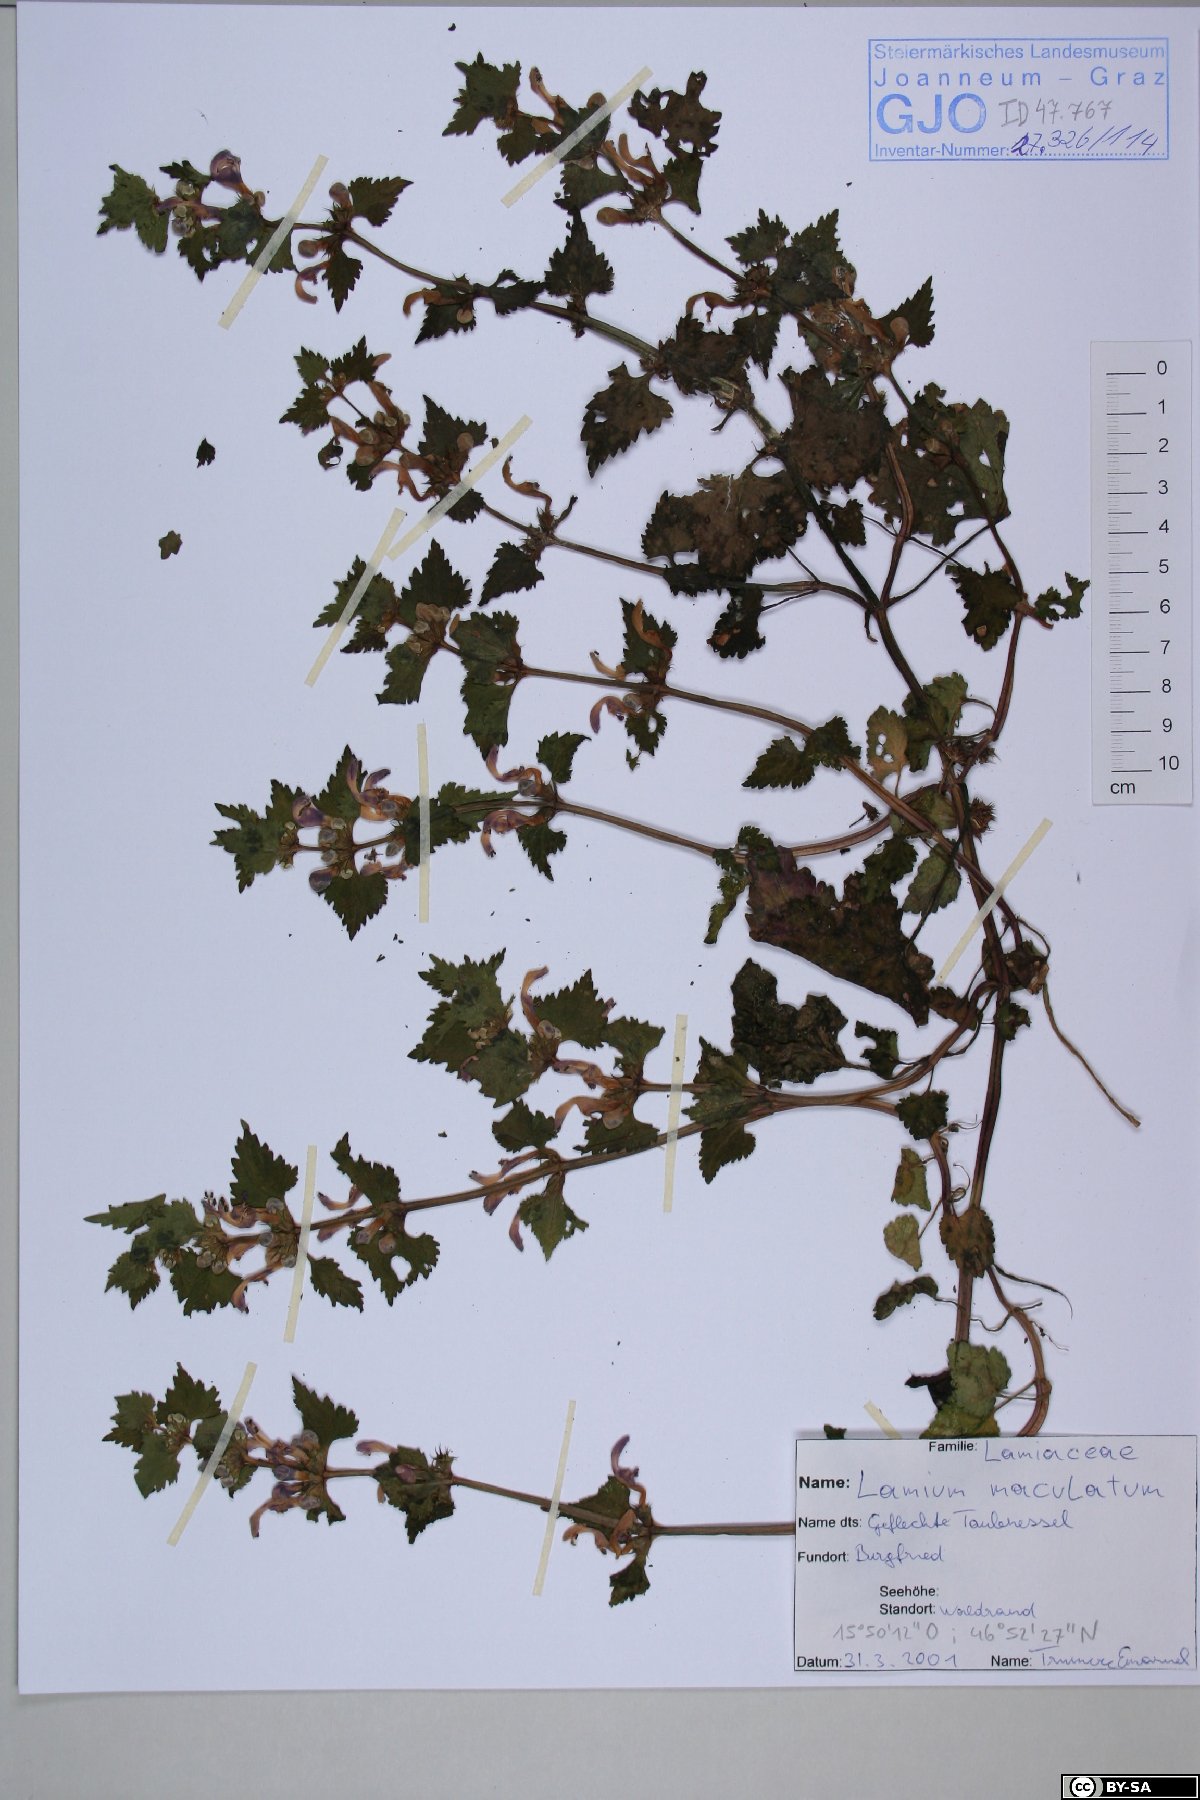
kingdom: Plantae
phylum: Tracheophyta
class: Magnoliopsida
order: Lamiales
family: Lamiaceae
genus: Lamium
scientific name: Lamium maculatum
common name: Spotted dead-nettle
